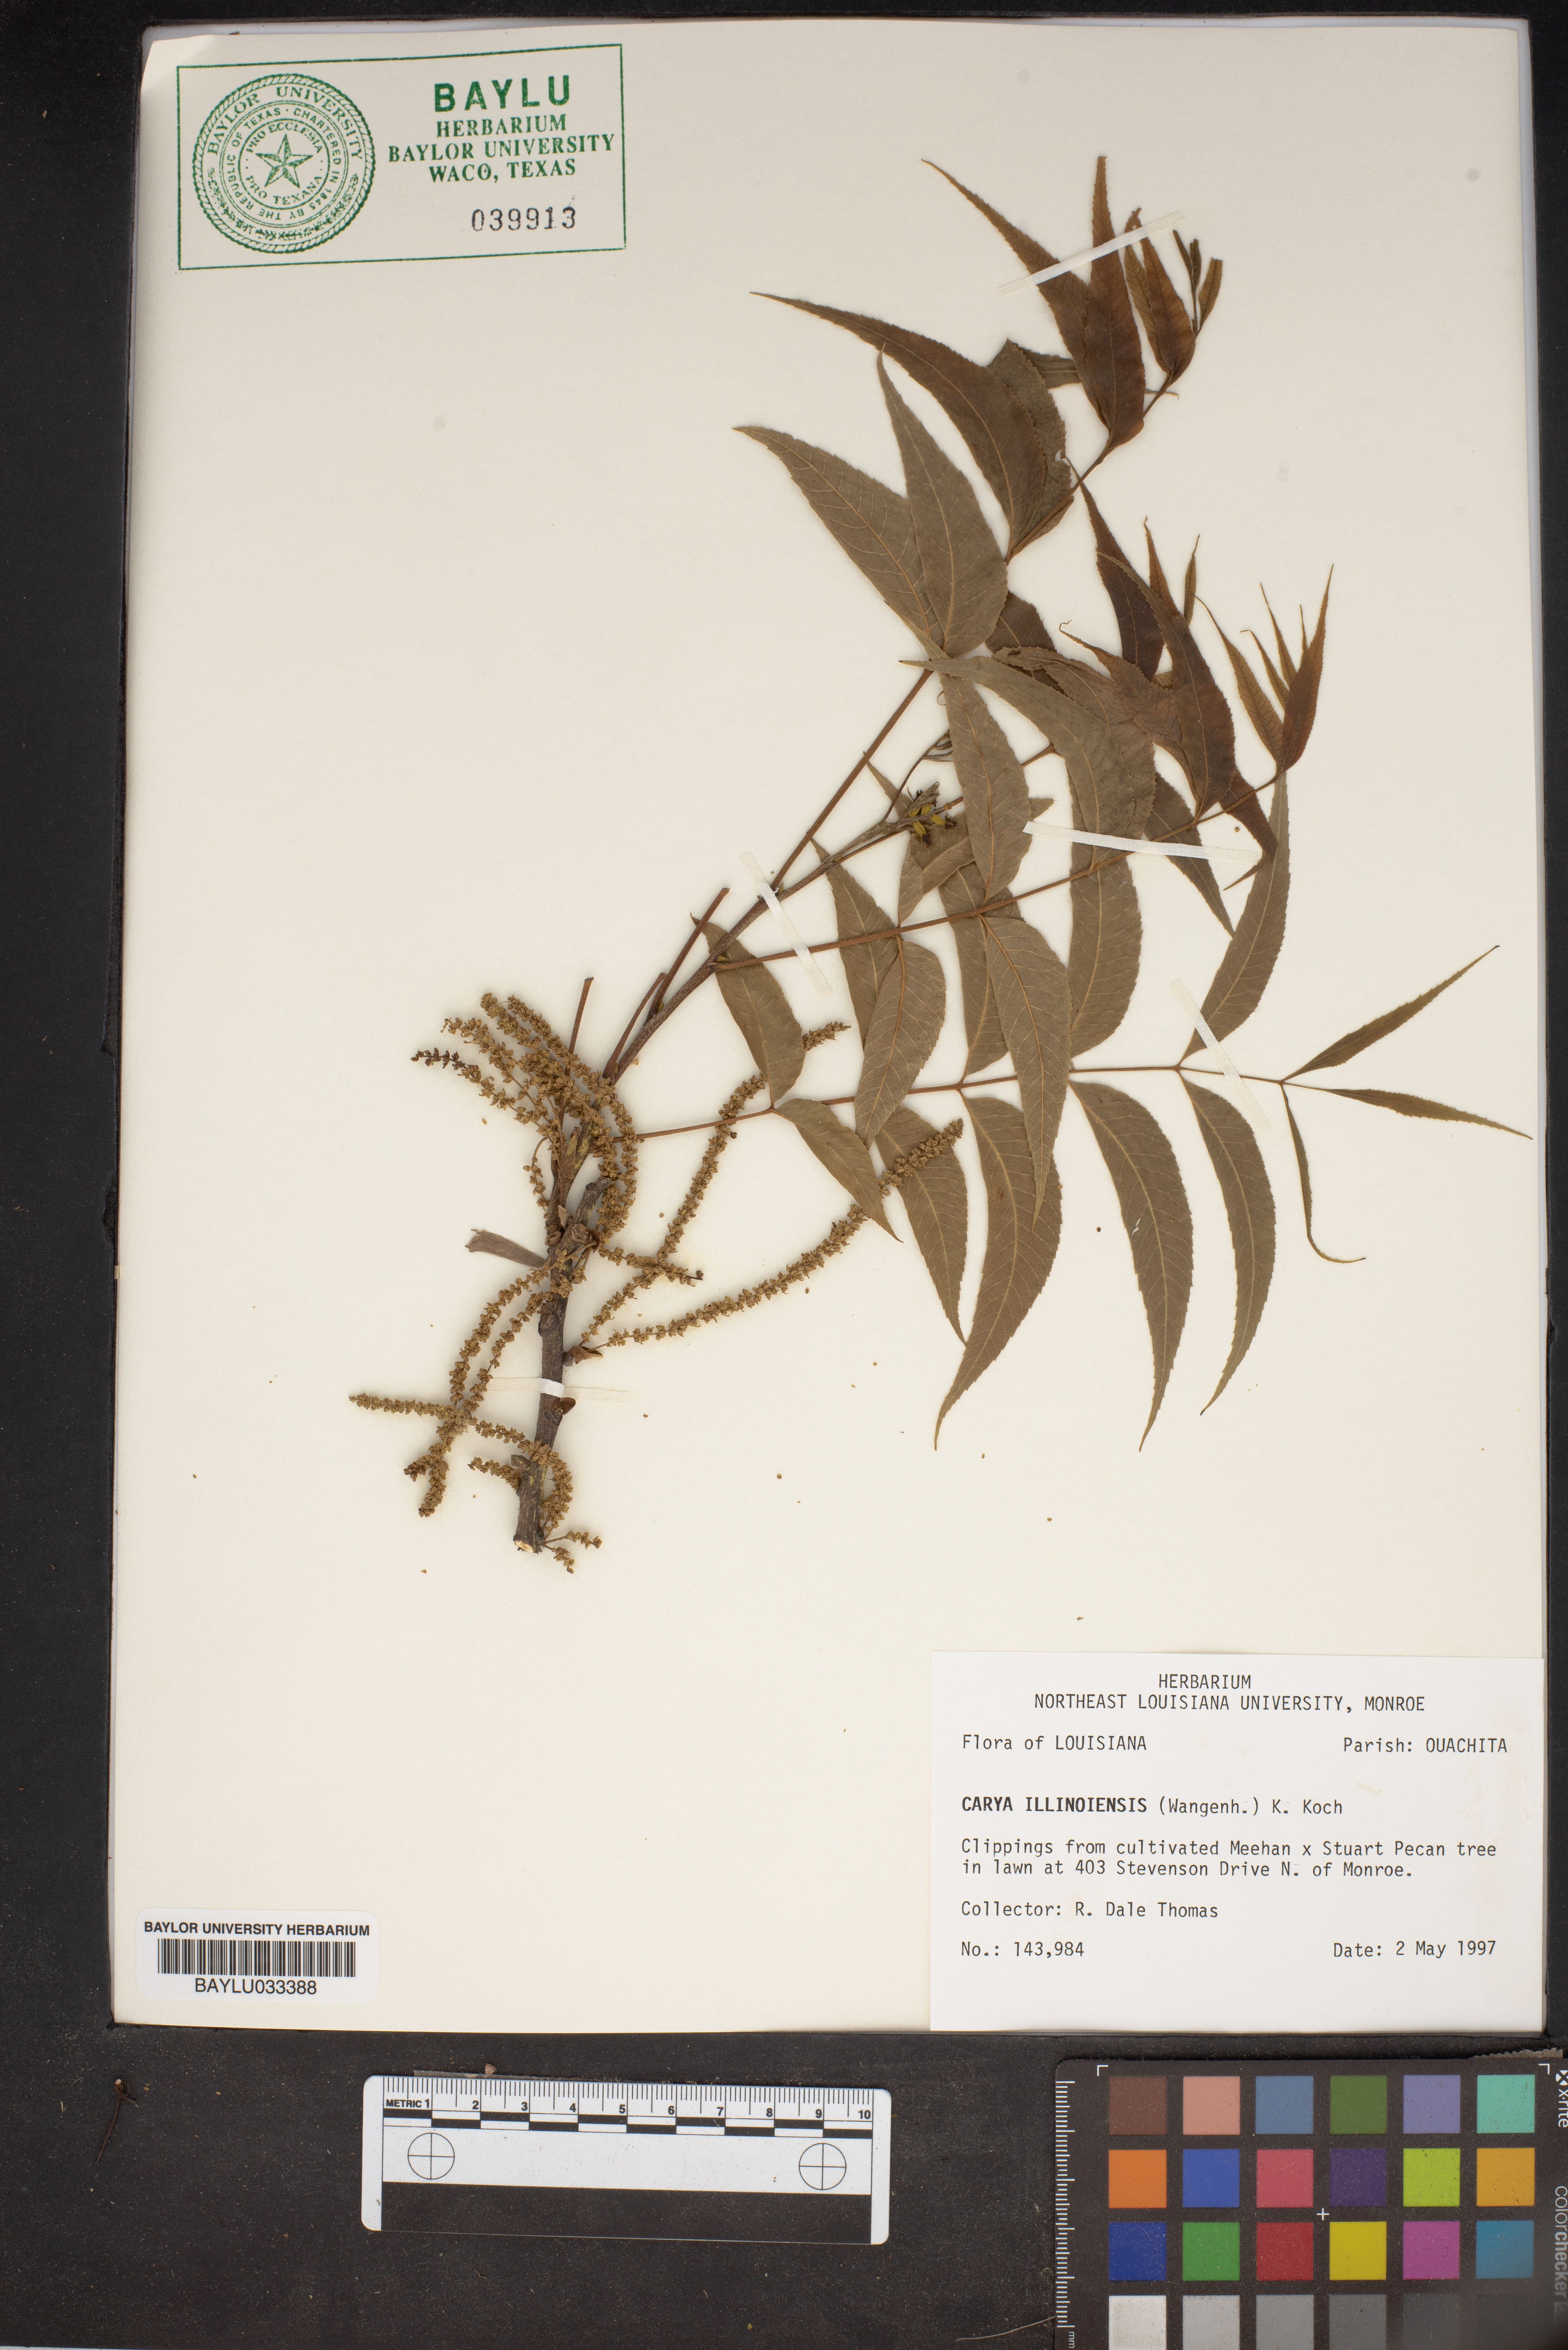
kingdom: Plantae
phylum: Tracheophyta
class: Magnoliopsida
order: Fagales
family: Juglandaceae
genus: Carya
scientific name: Carya
